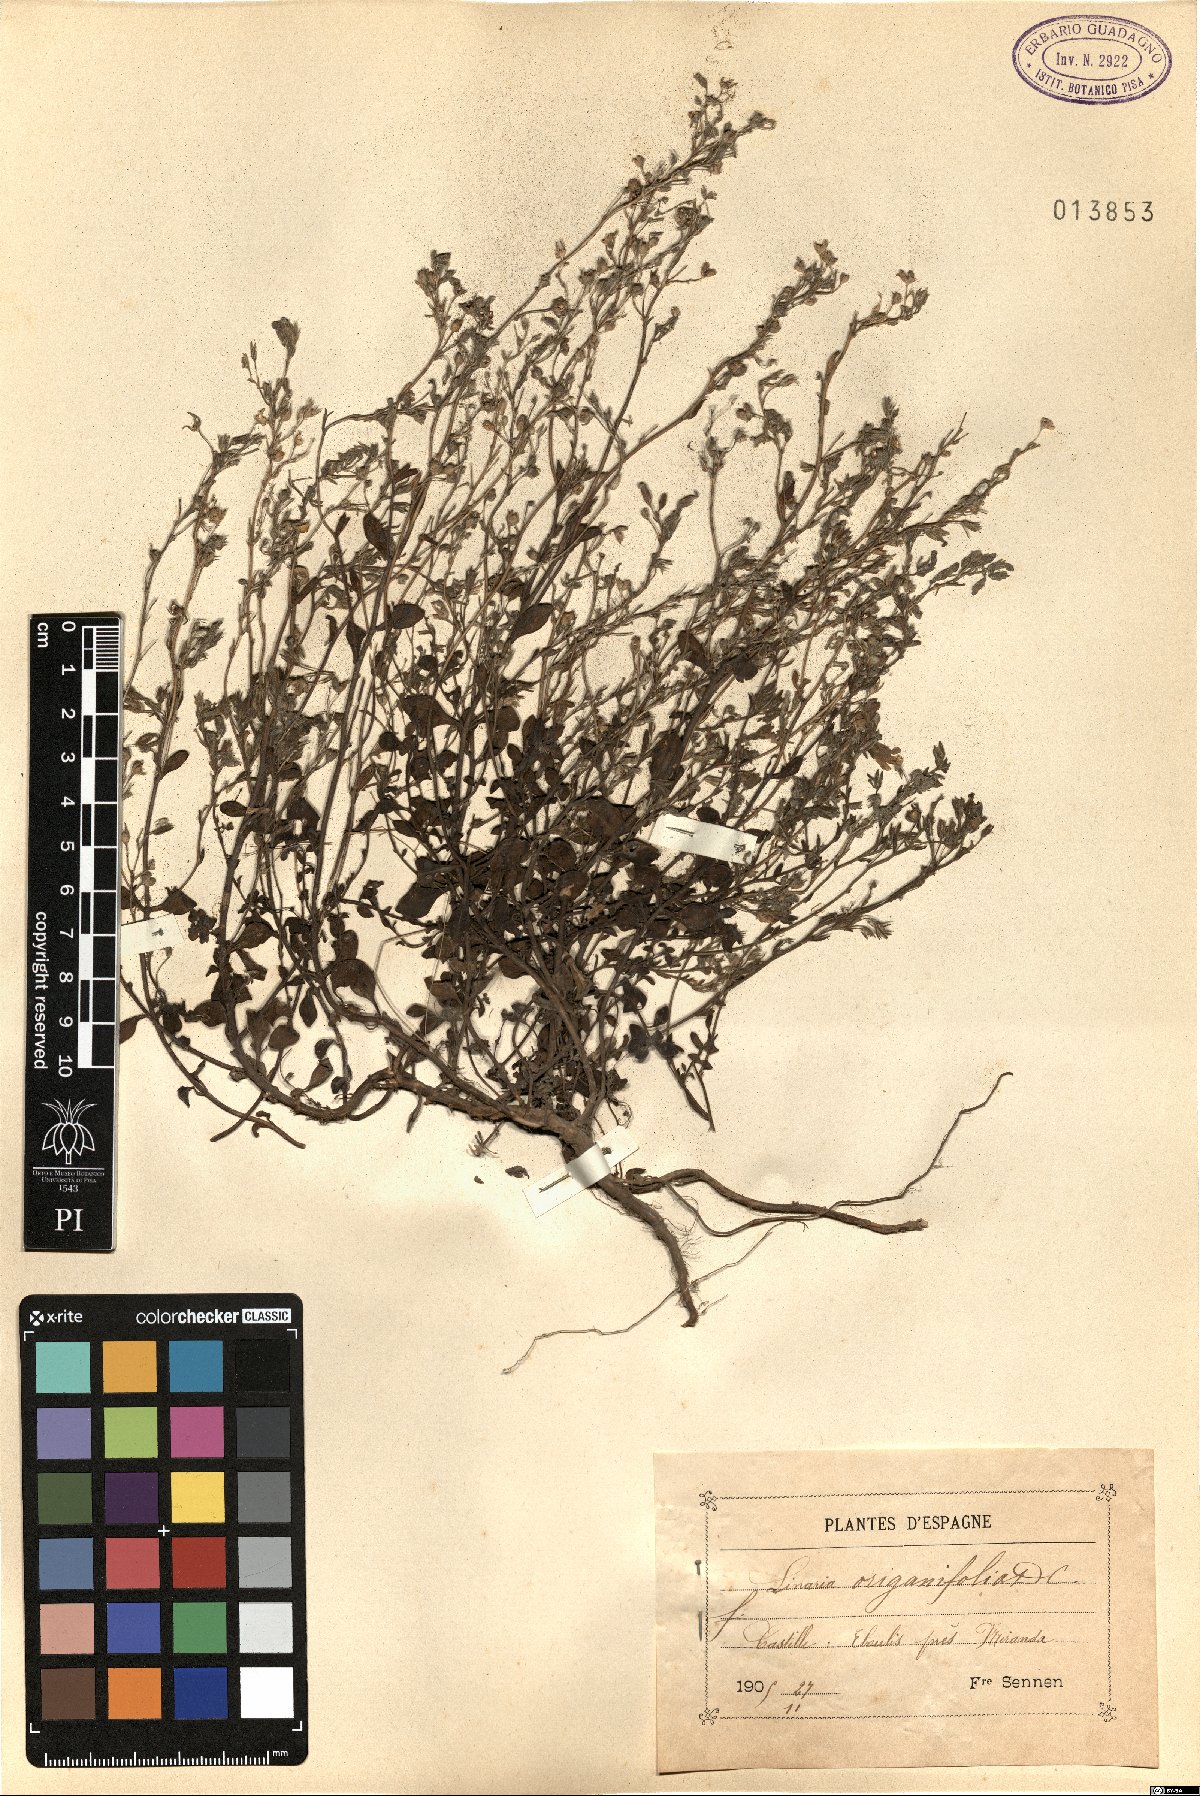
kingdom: Plantae
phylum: Tracheophyta
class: Magnoliopsida
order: Lamiales
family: Plantaginaceae
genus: Chaenorhinum
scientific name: Chaenorhinum origanifolium
